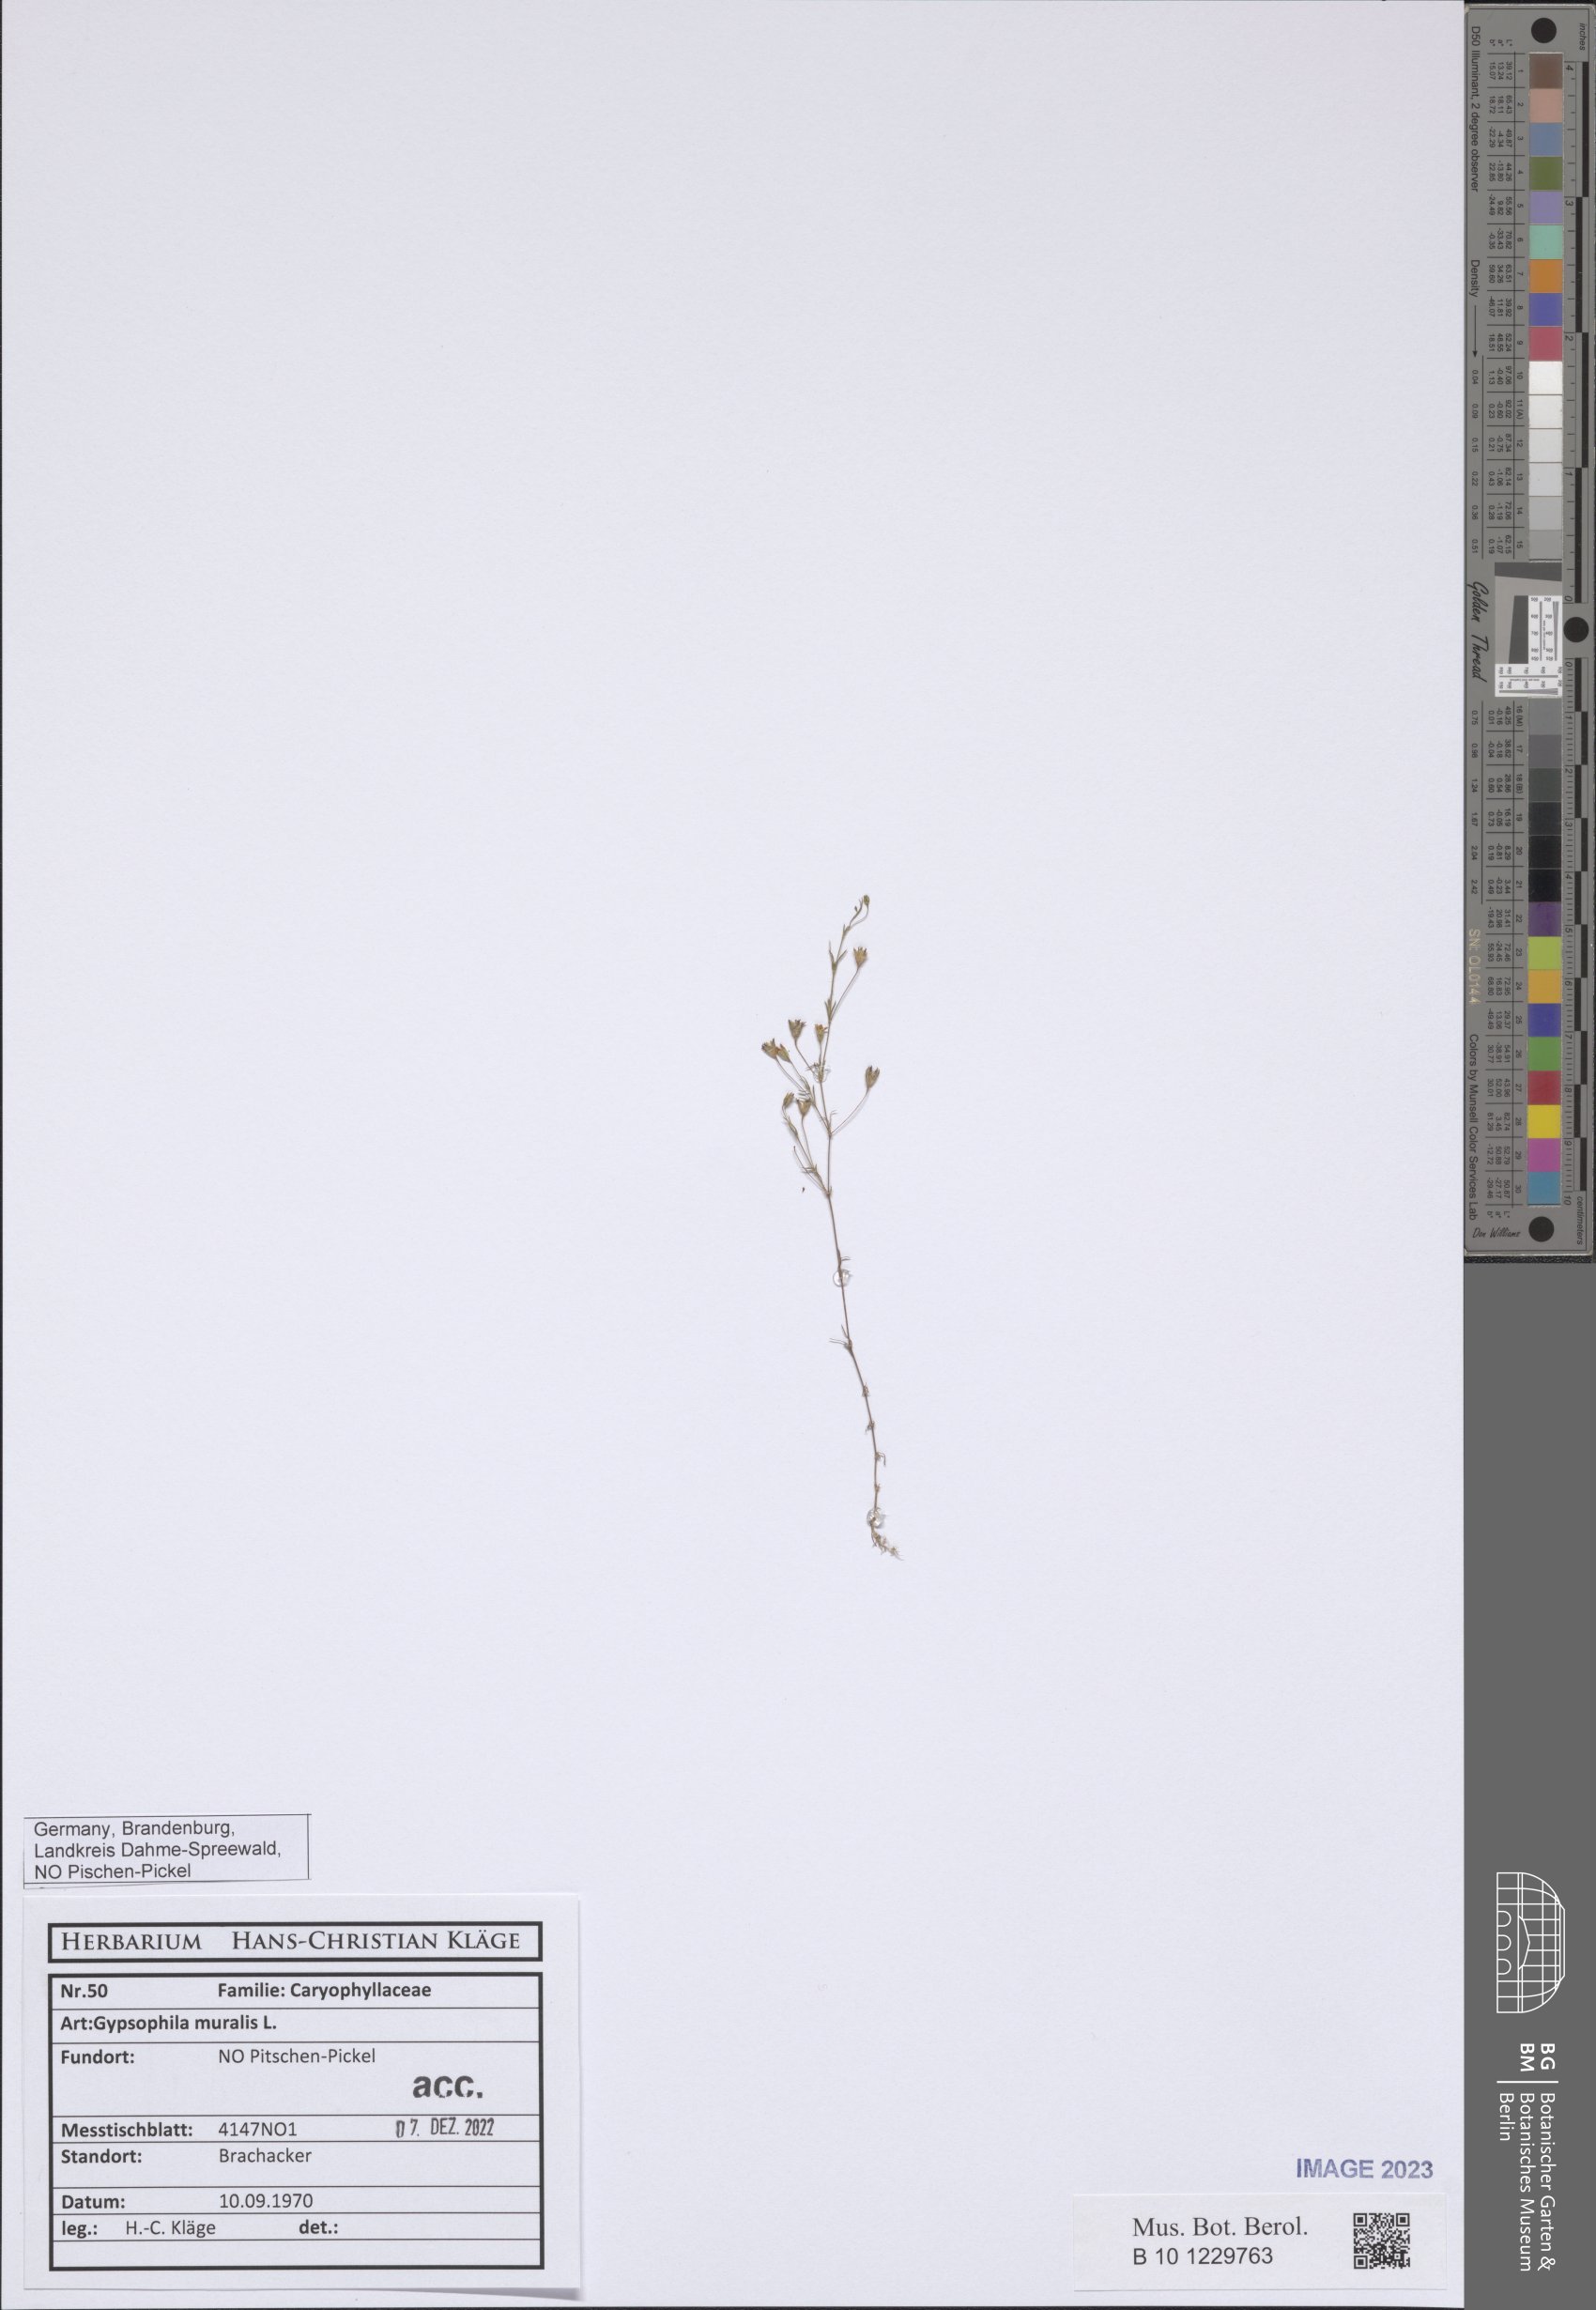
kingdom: Plantae
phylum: Tracheophyta
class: Magnoliopsida
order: Caryophyllales
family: Caryophyllaceae
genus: Psammophiliella
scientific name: Psammophiliella muralis
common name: Cushion baby's-breath
